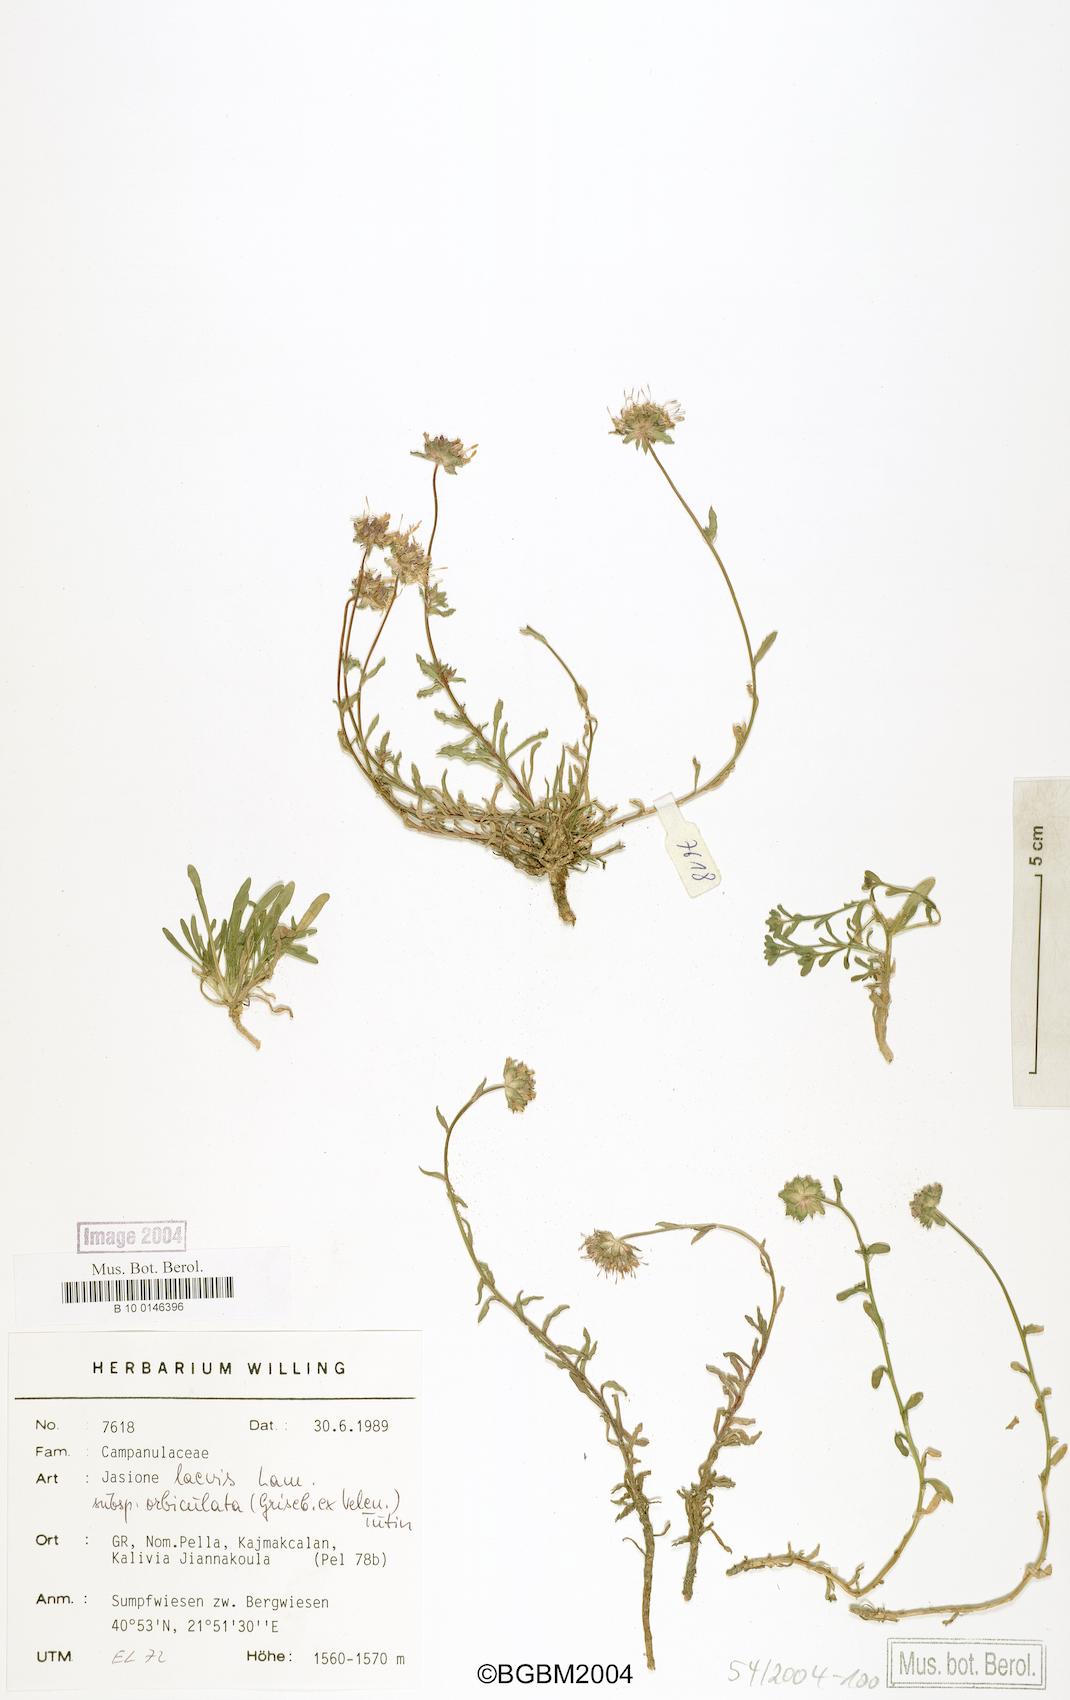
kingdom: Plantae
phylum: Tracheophyta
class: Magnoliopsida
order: Asterales
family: Campanulaceae
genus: Jasione
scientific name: Jasione orbiculata
